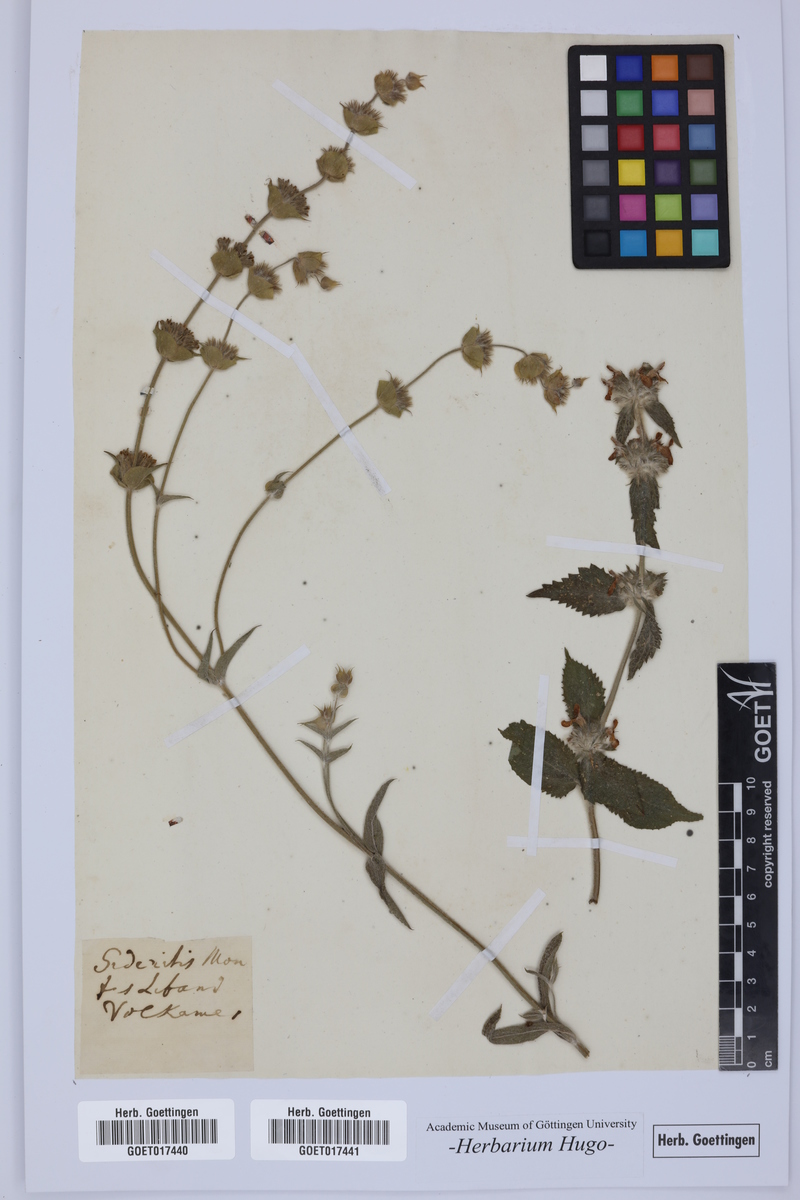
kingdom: Plantae
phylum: Tracheophyta
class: Magnoliopsida
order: Lamiales
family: Lamiaceae
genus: Sideritis
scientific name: Sideritis
